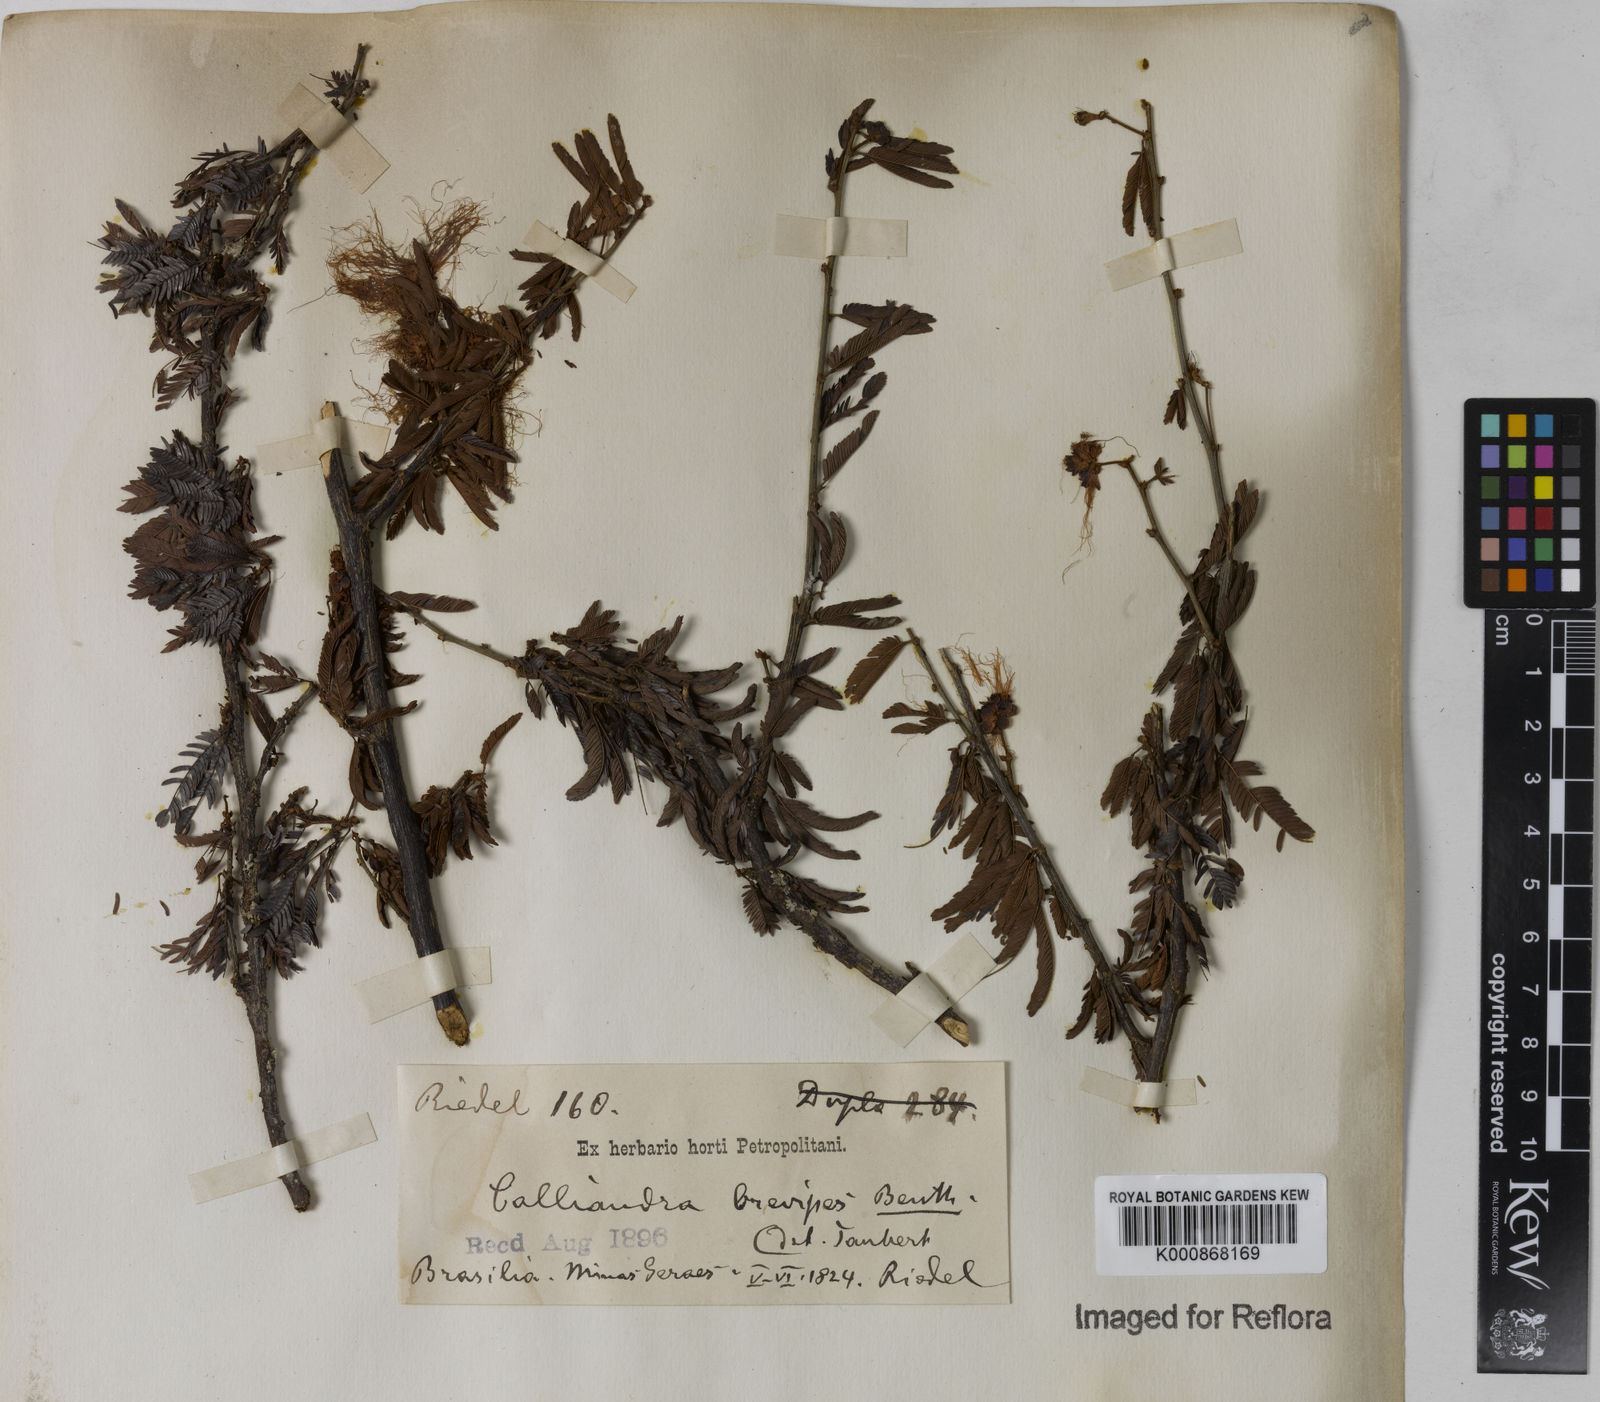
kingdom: Plantae
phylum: Tracheophyta
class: Magnoliopsida
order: Fabales
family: Fabaceae
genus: Calliandra
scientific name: Calliandra selloi
